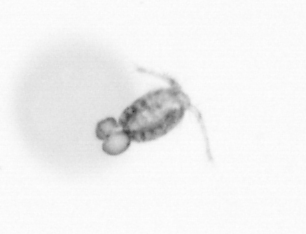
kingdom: Animalia
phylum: Arthropoda
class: Copepoda
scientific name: Copepoda
